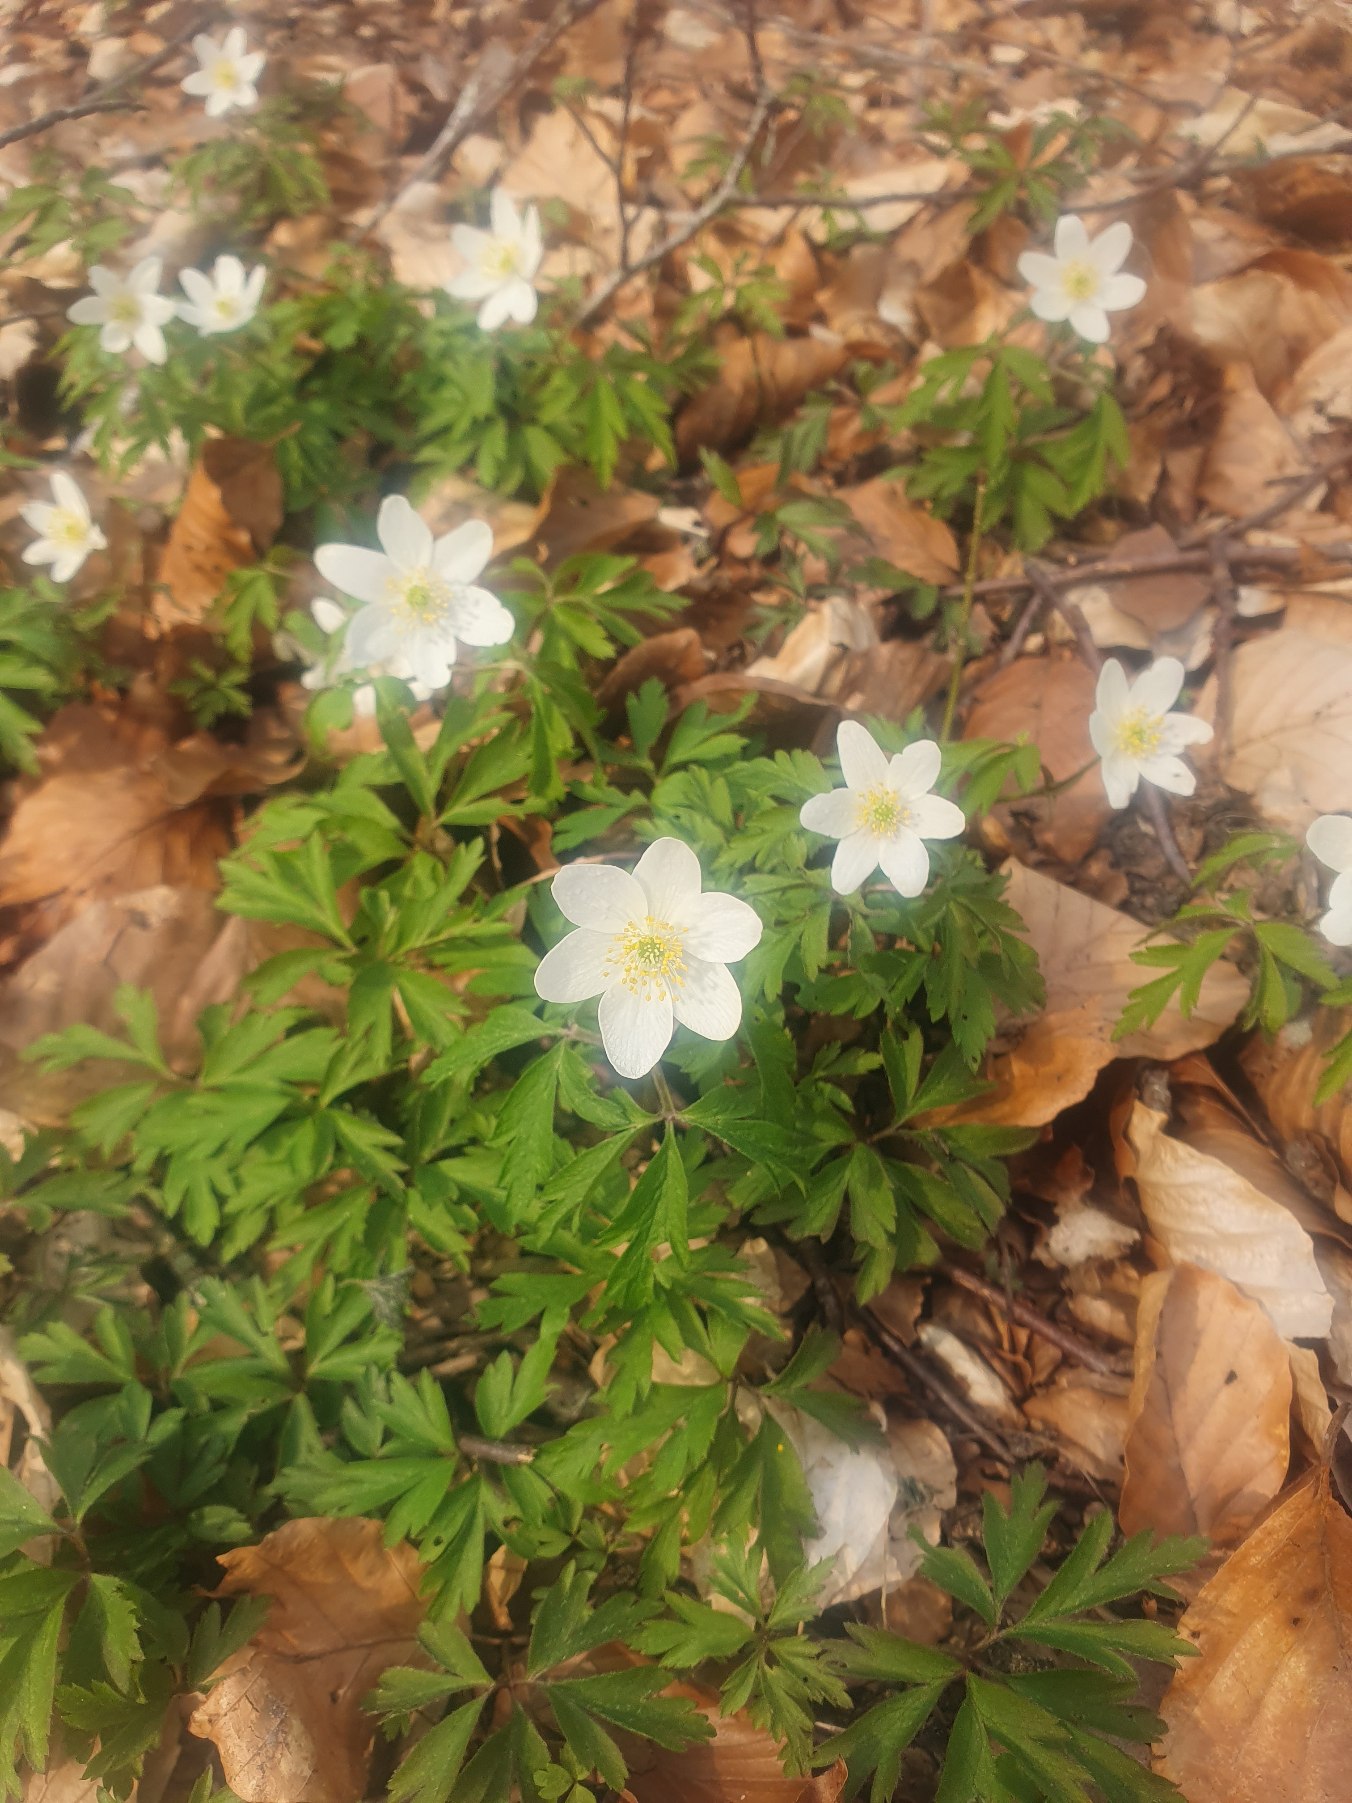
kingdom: Plantae
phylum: Tracheophyta
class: Magnoliopsida
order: Ranunculales
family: Ranunculaceae
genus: Anemone
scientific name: Anemone nemorosa
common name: Hvid anemone
